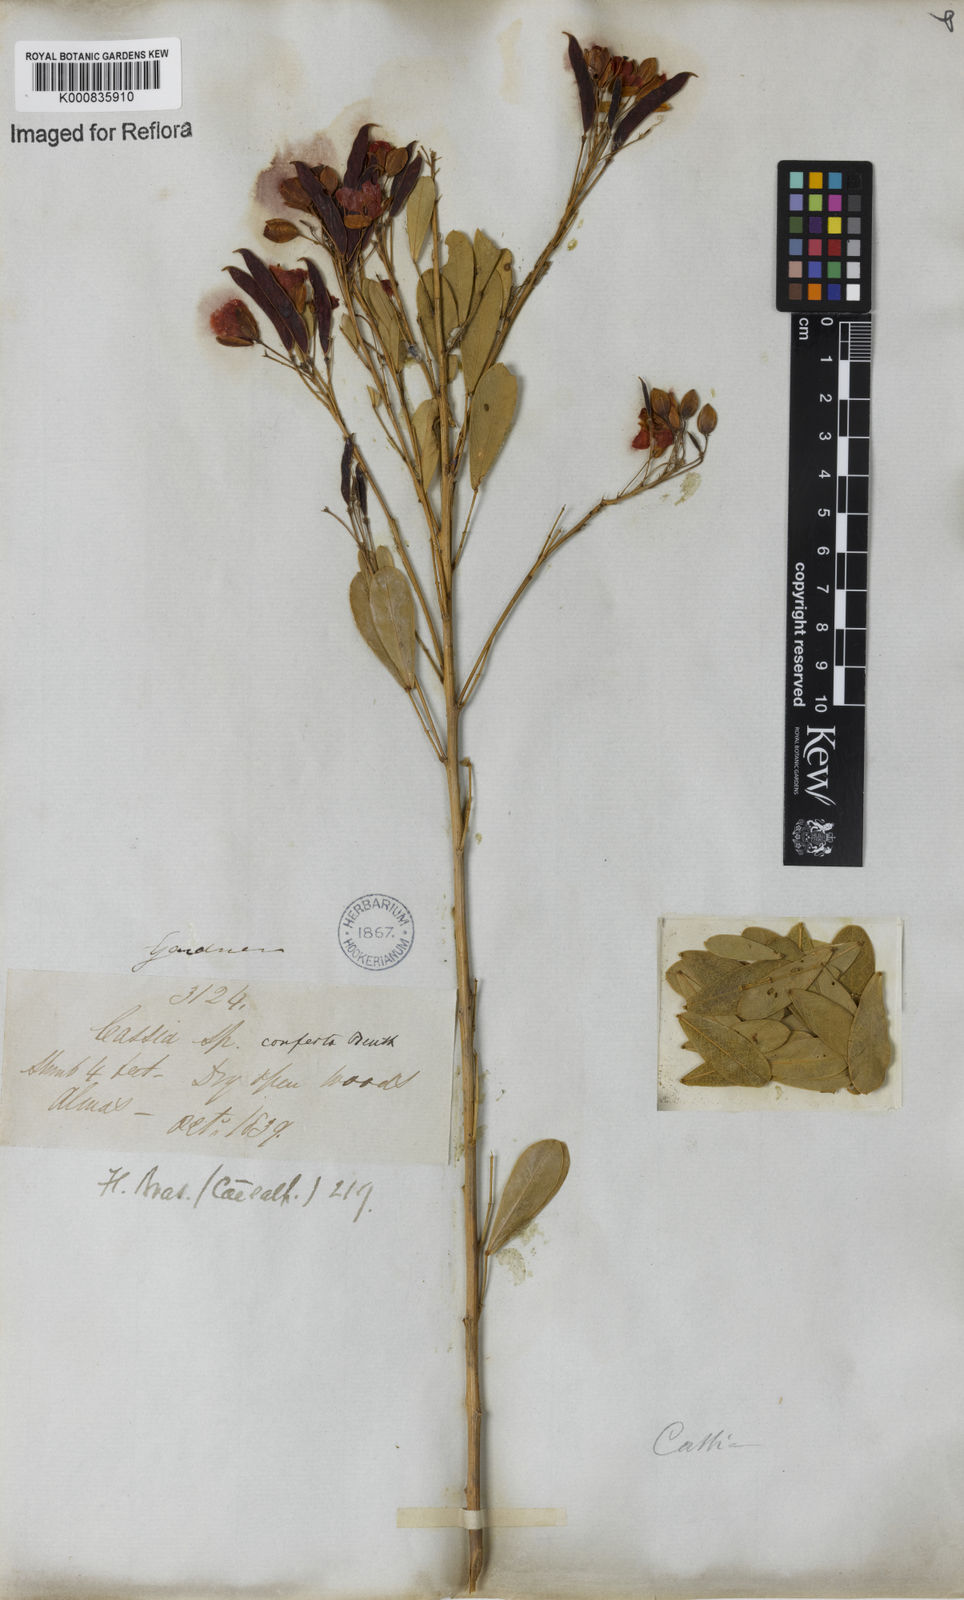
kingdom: Plantae
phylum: Tracheophyta
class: Magnoliopsida
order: Fabales
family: Fabaceae
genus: Chamaecrista
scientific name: Chamaecrista conferta
